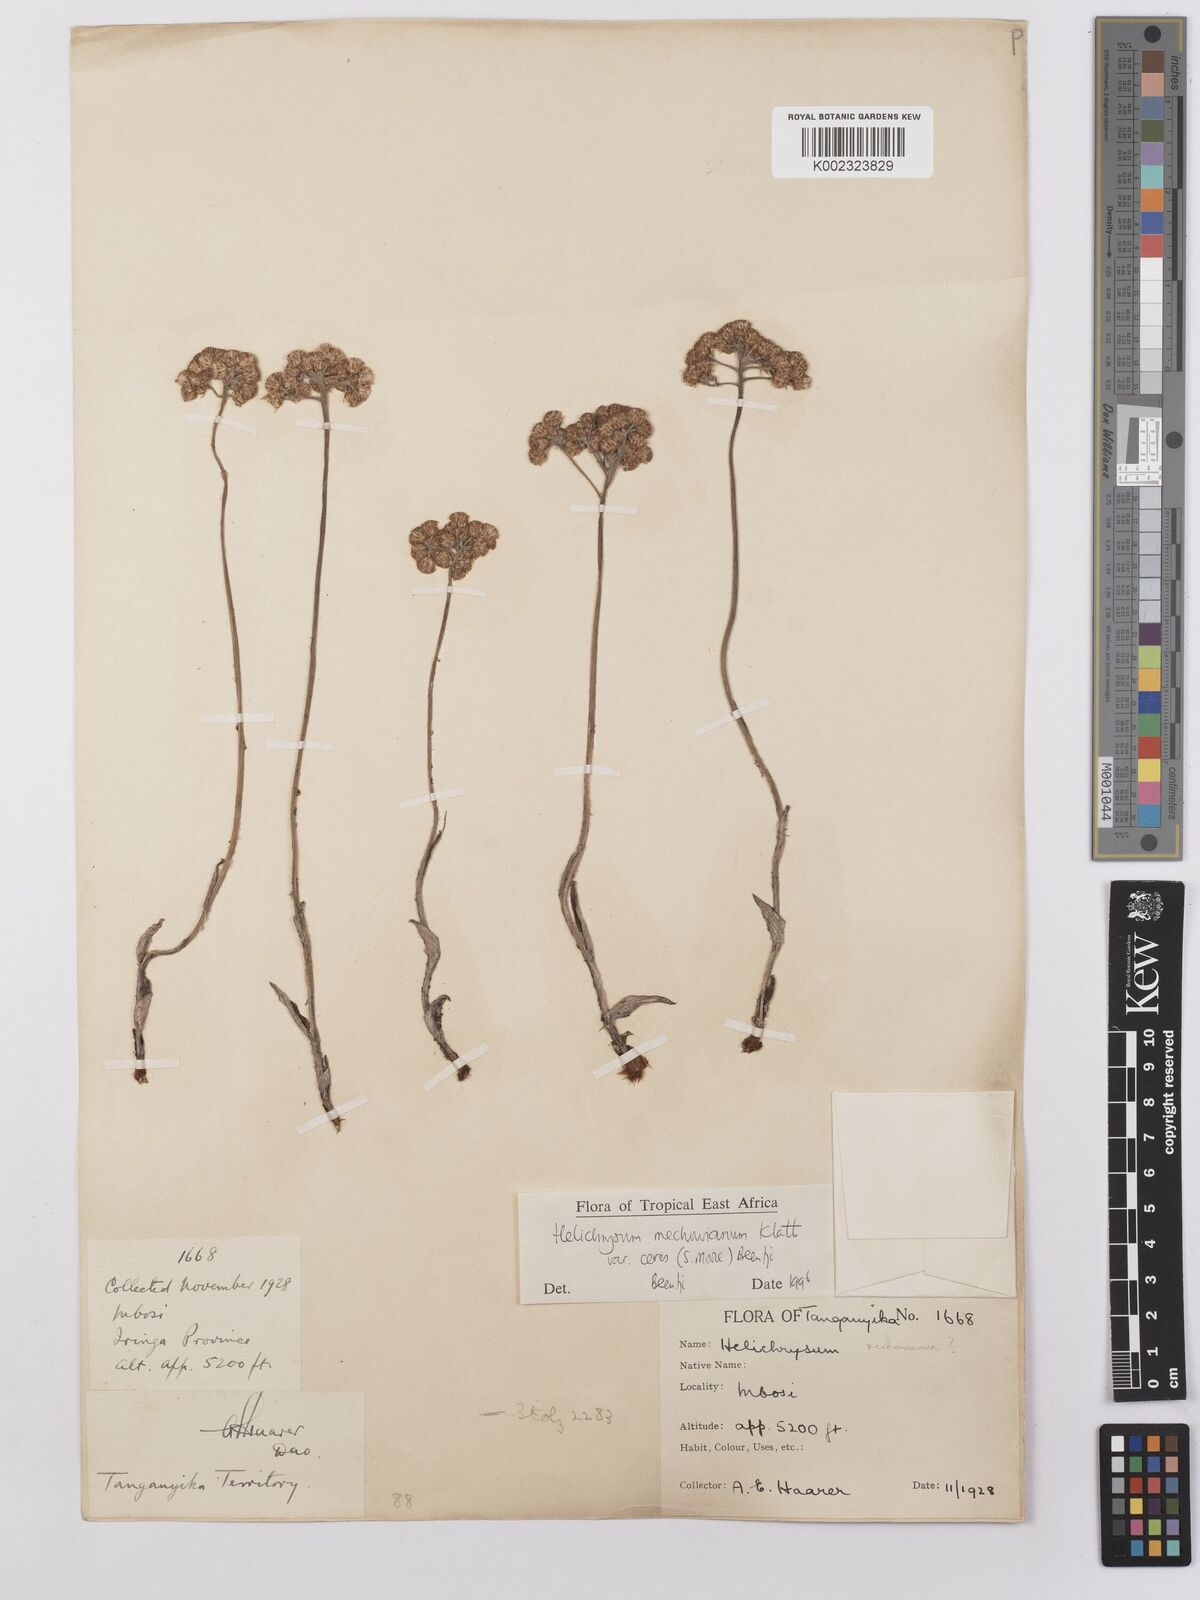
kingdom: Plantae
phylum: Tracheophyta
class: Magnoliopsida
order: Asterales
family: Asteraceae
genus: Helichrysum
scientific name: Helichrysum mechowianum
